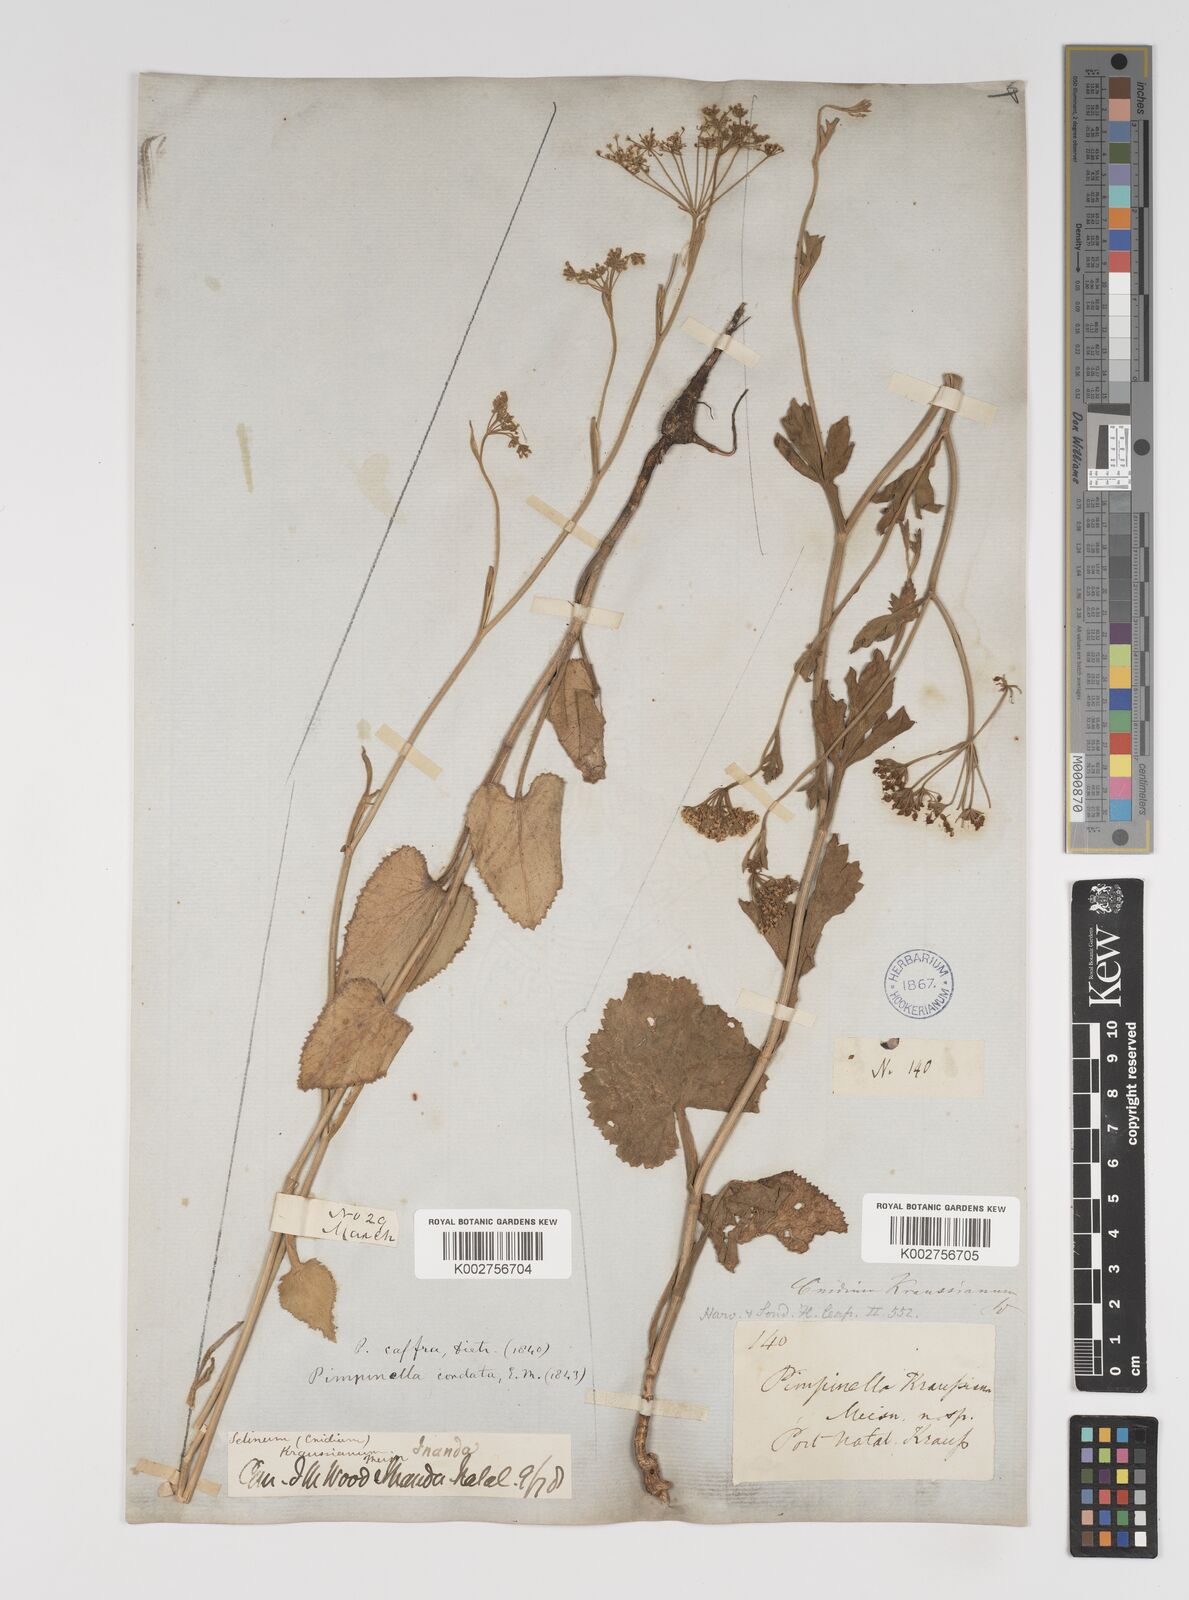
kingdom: Plantae
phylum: Tracheophyta
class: Magnoliopsida
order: Apiales
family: Apiaceae
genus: Pimpinella
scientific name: Pimpinella
